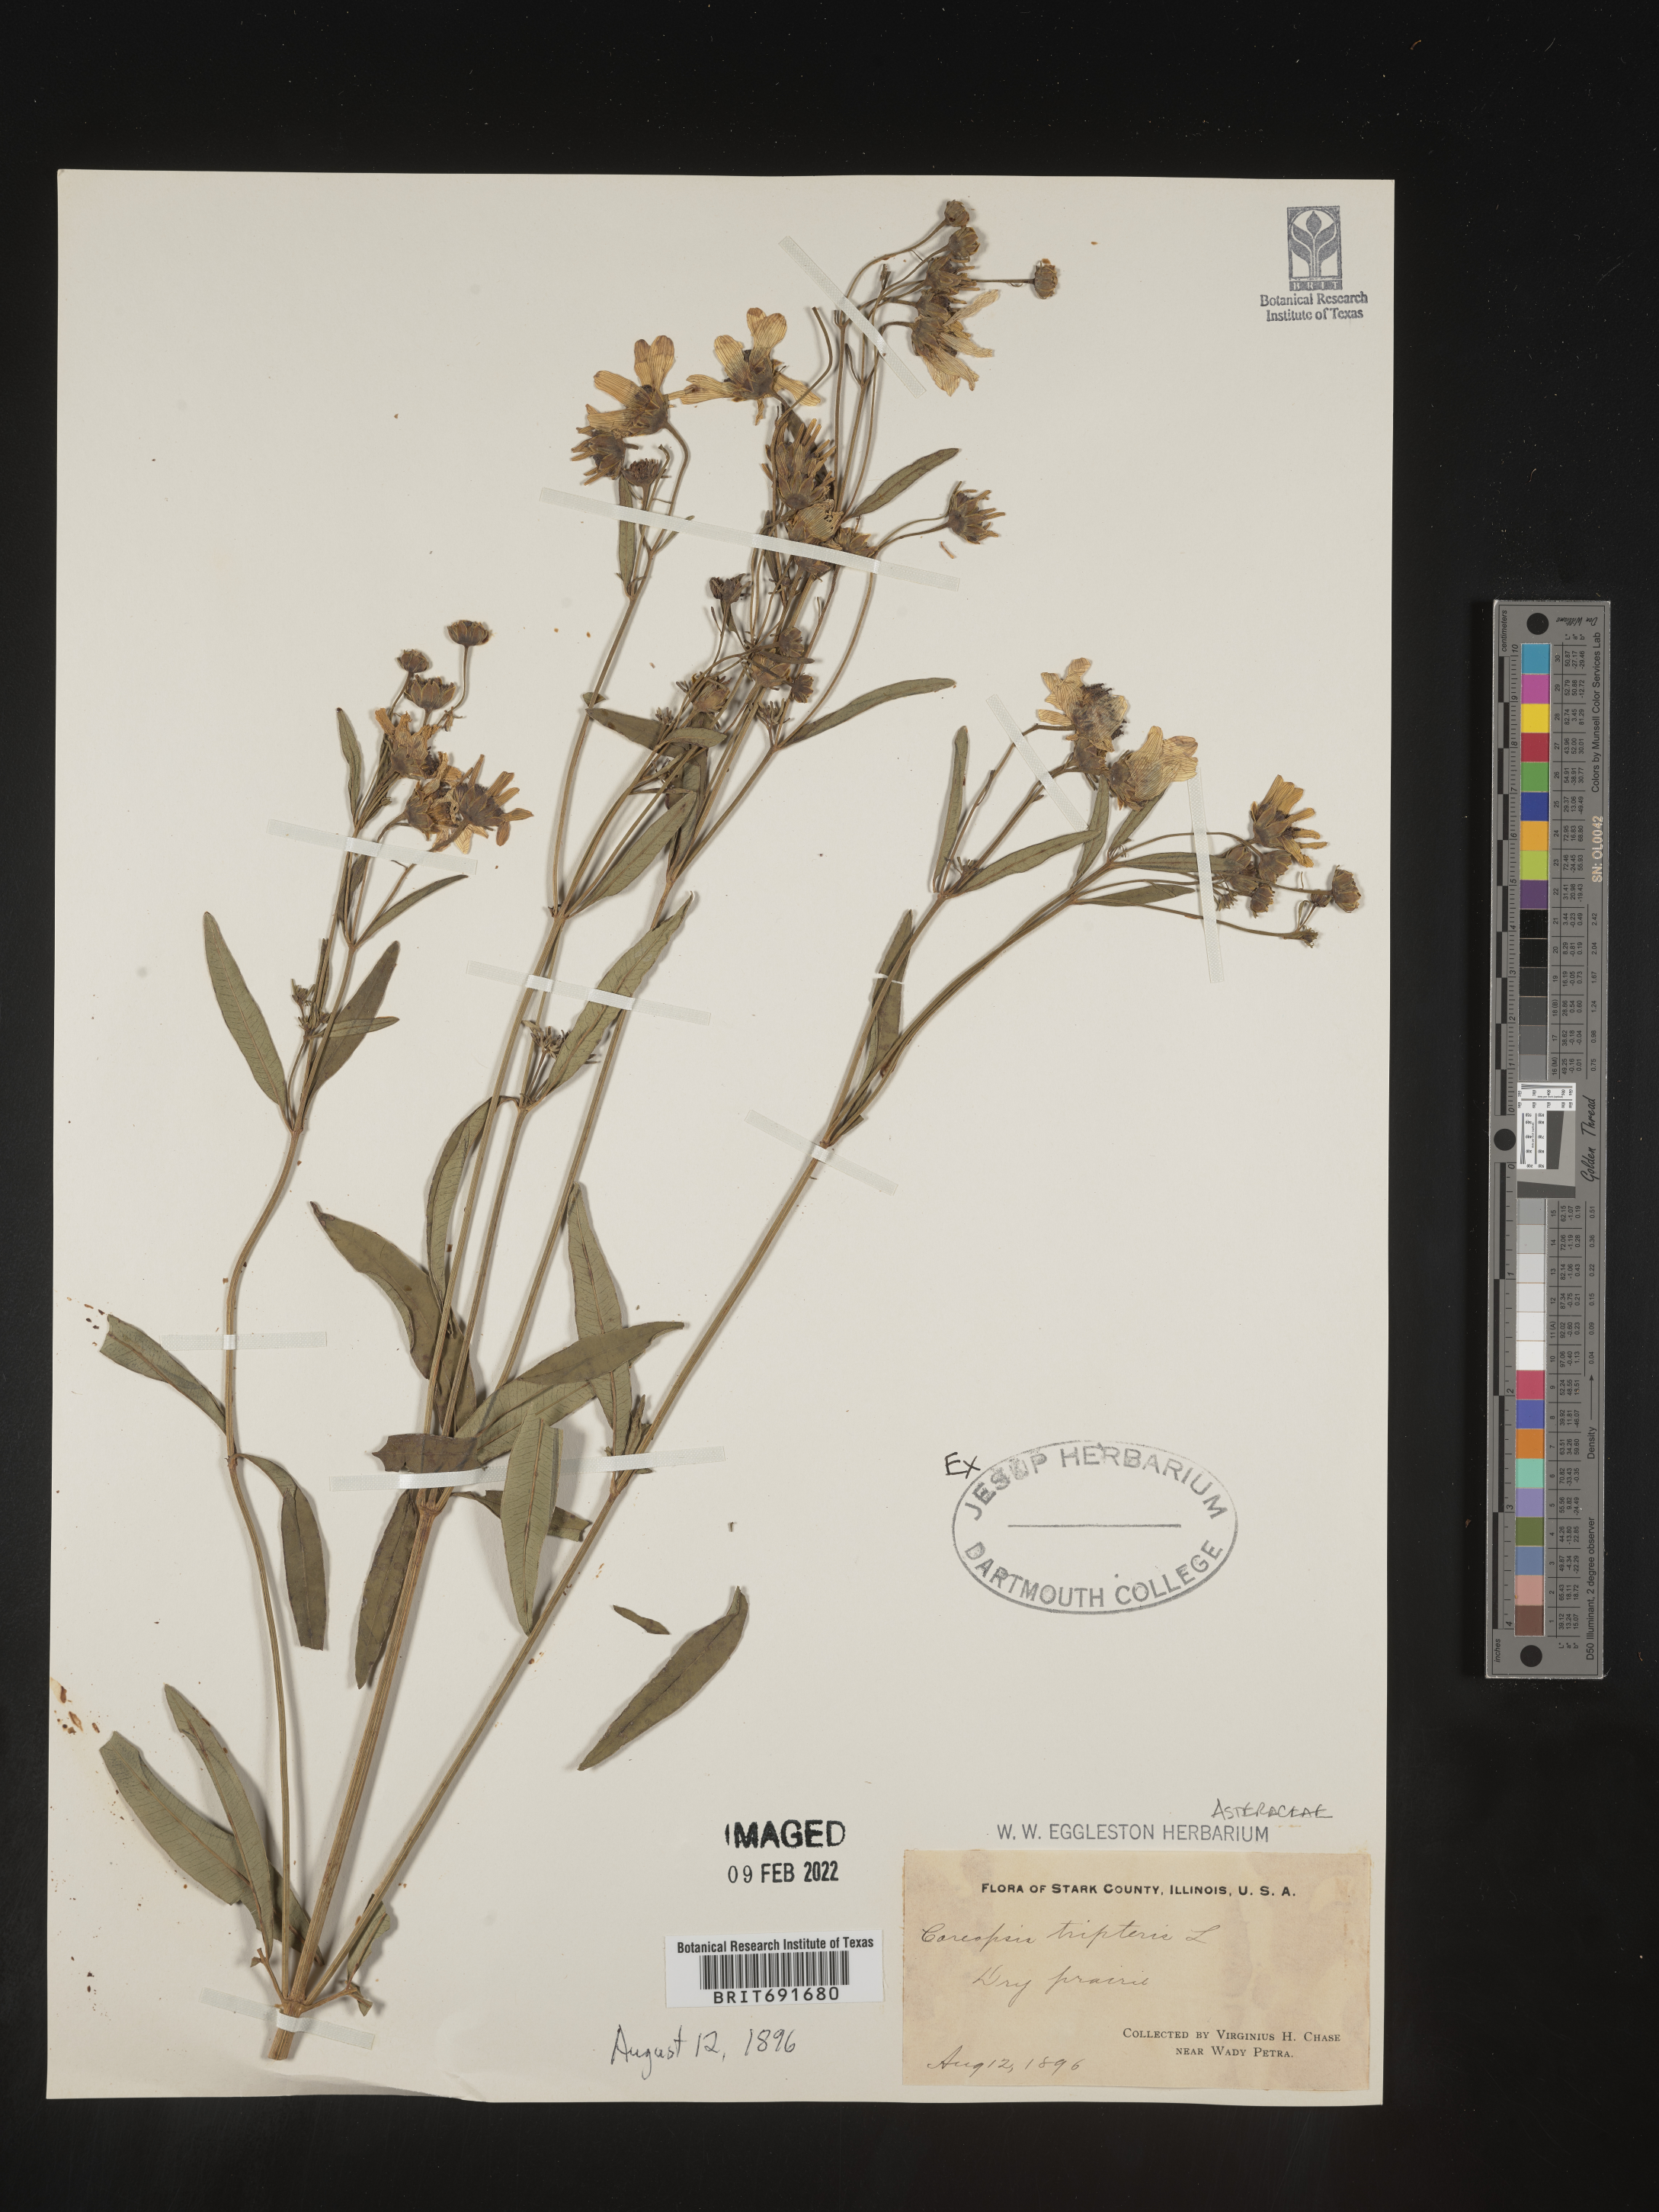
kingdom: Plantae
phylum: Tracheophyta
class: Magnoliopsida
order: Asterales
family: Asteraceae
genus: Coreopsis
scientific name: Coreopsis tripteris
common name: Tall coreopsis
